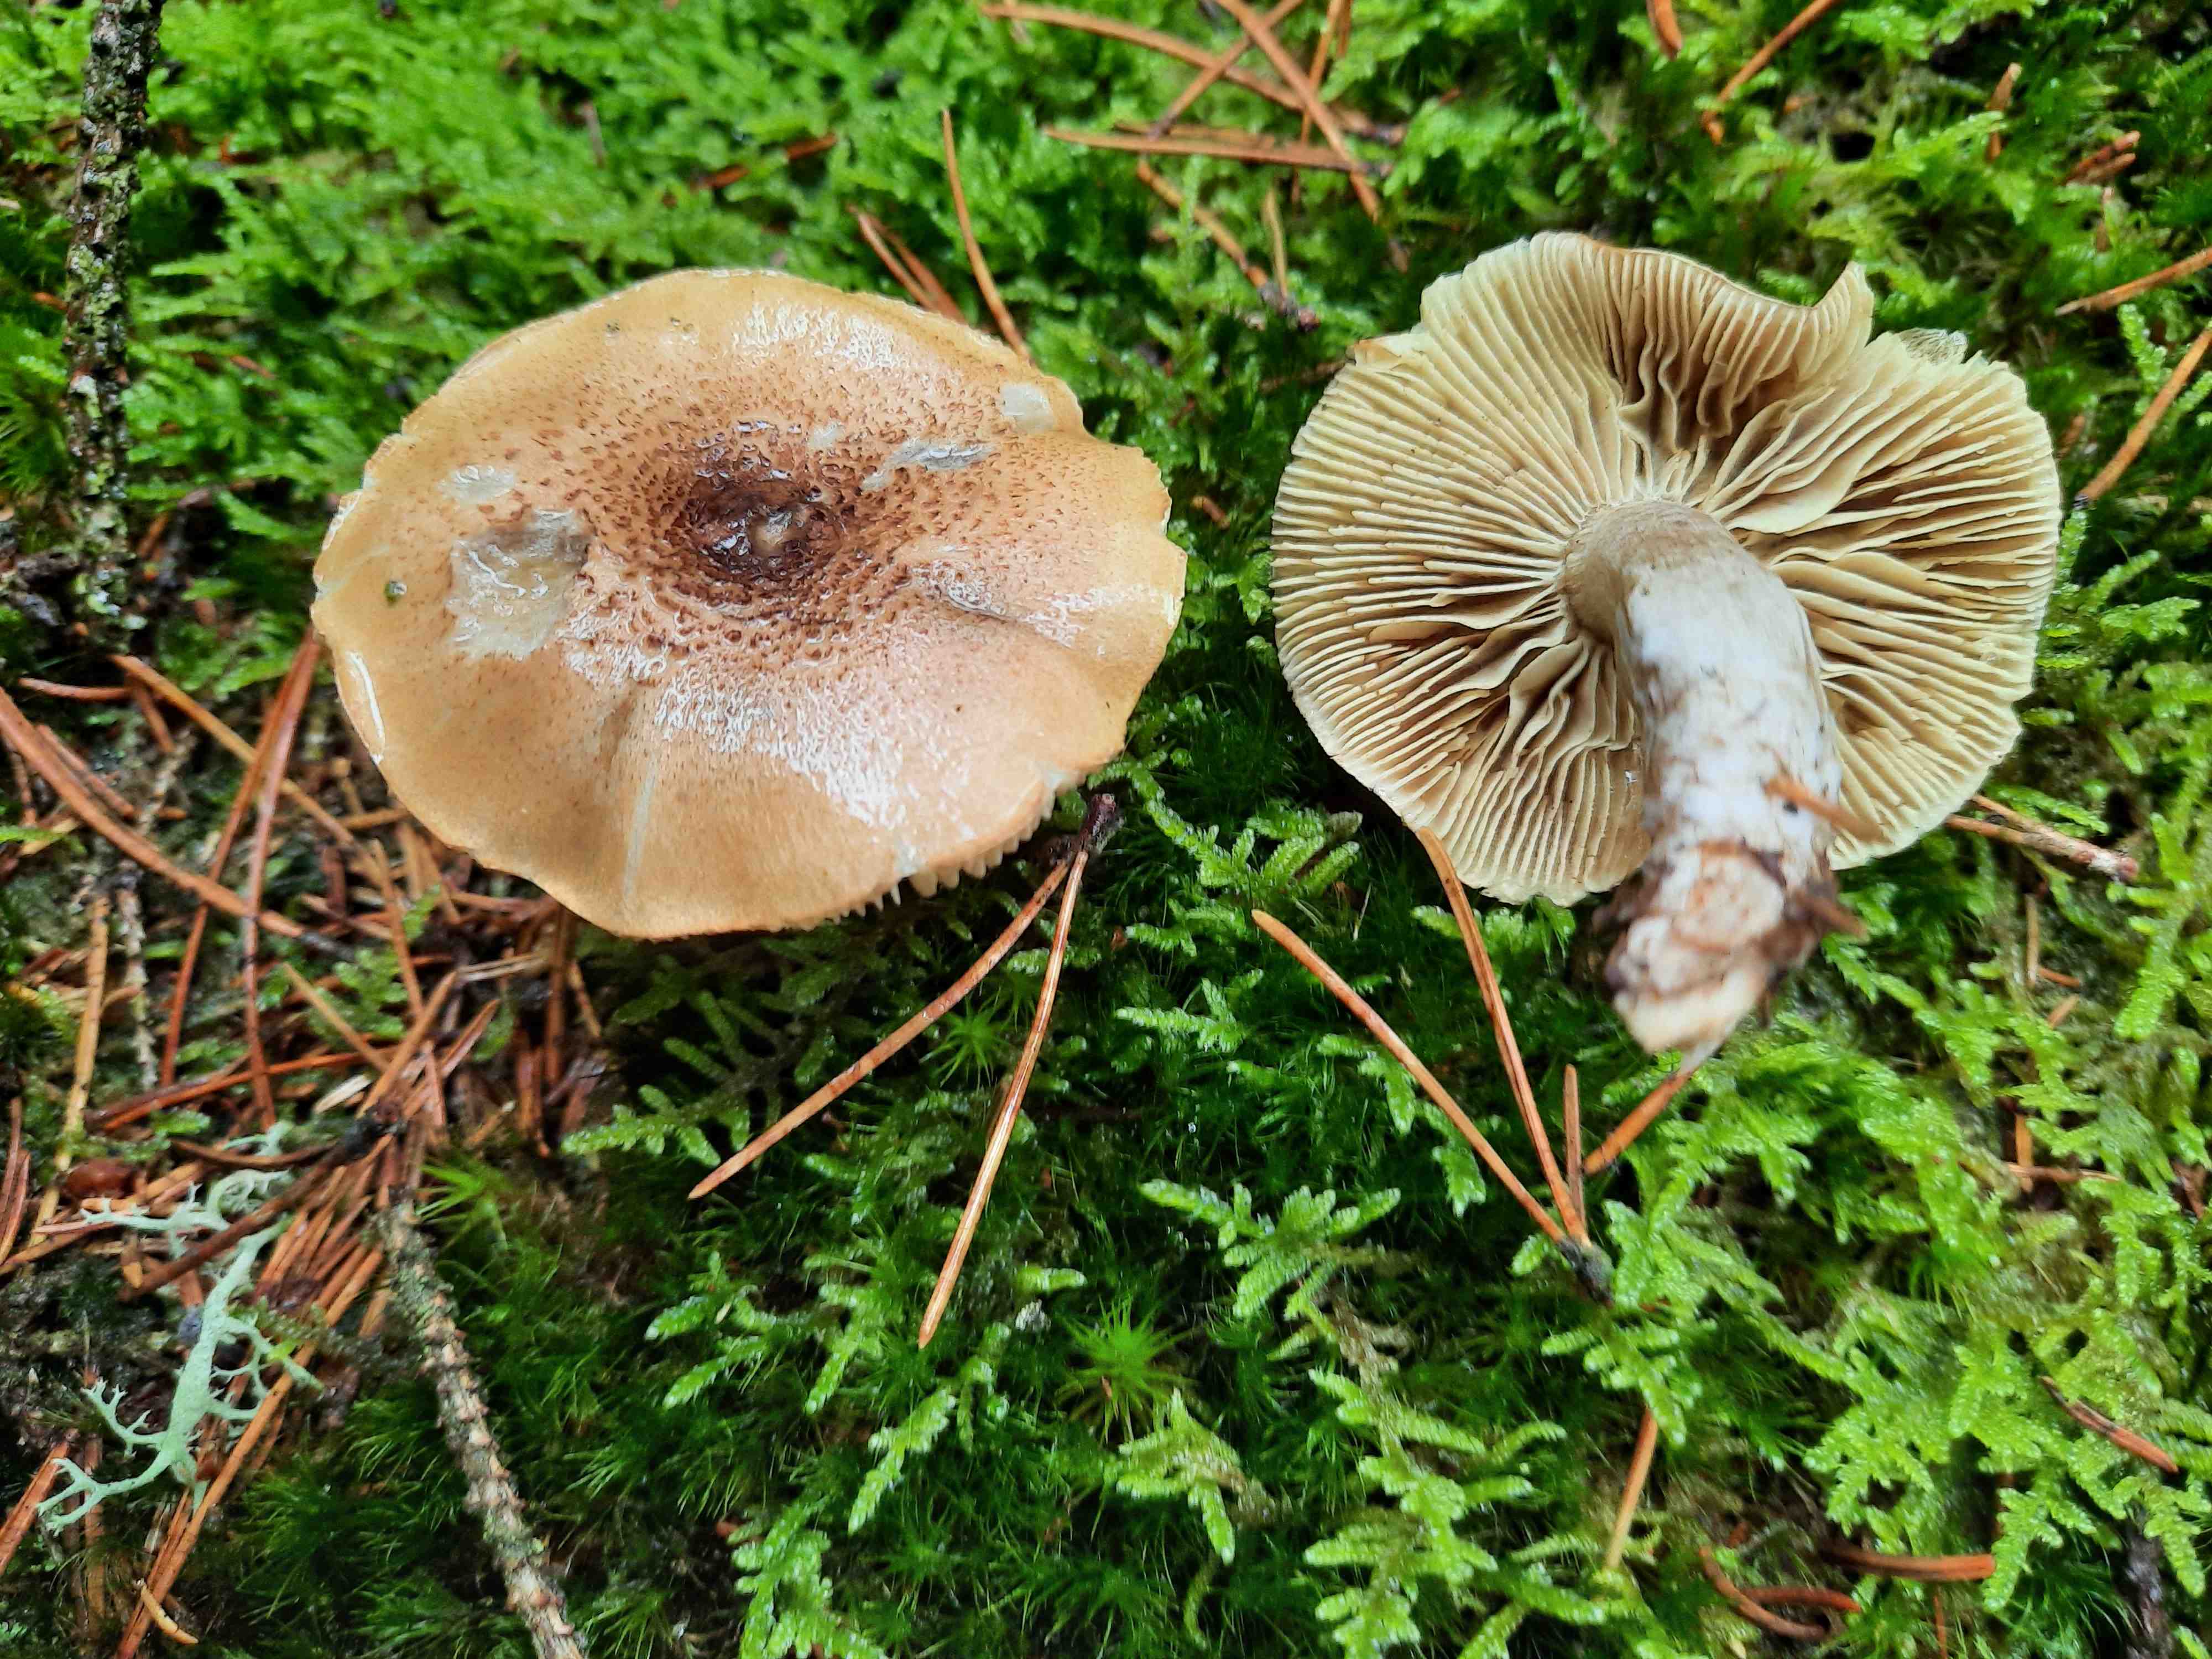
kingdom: Fungi
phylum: Basidiomycota
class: Agaricomycetes
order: Agaricales
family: Tricholomataceae
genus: Tricholoma
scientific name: Tricholoma aestuans
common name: kegle-ridderhat
